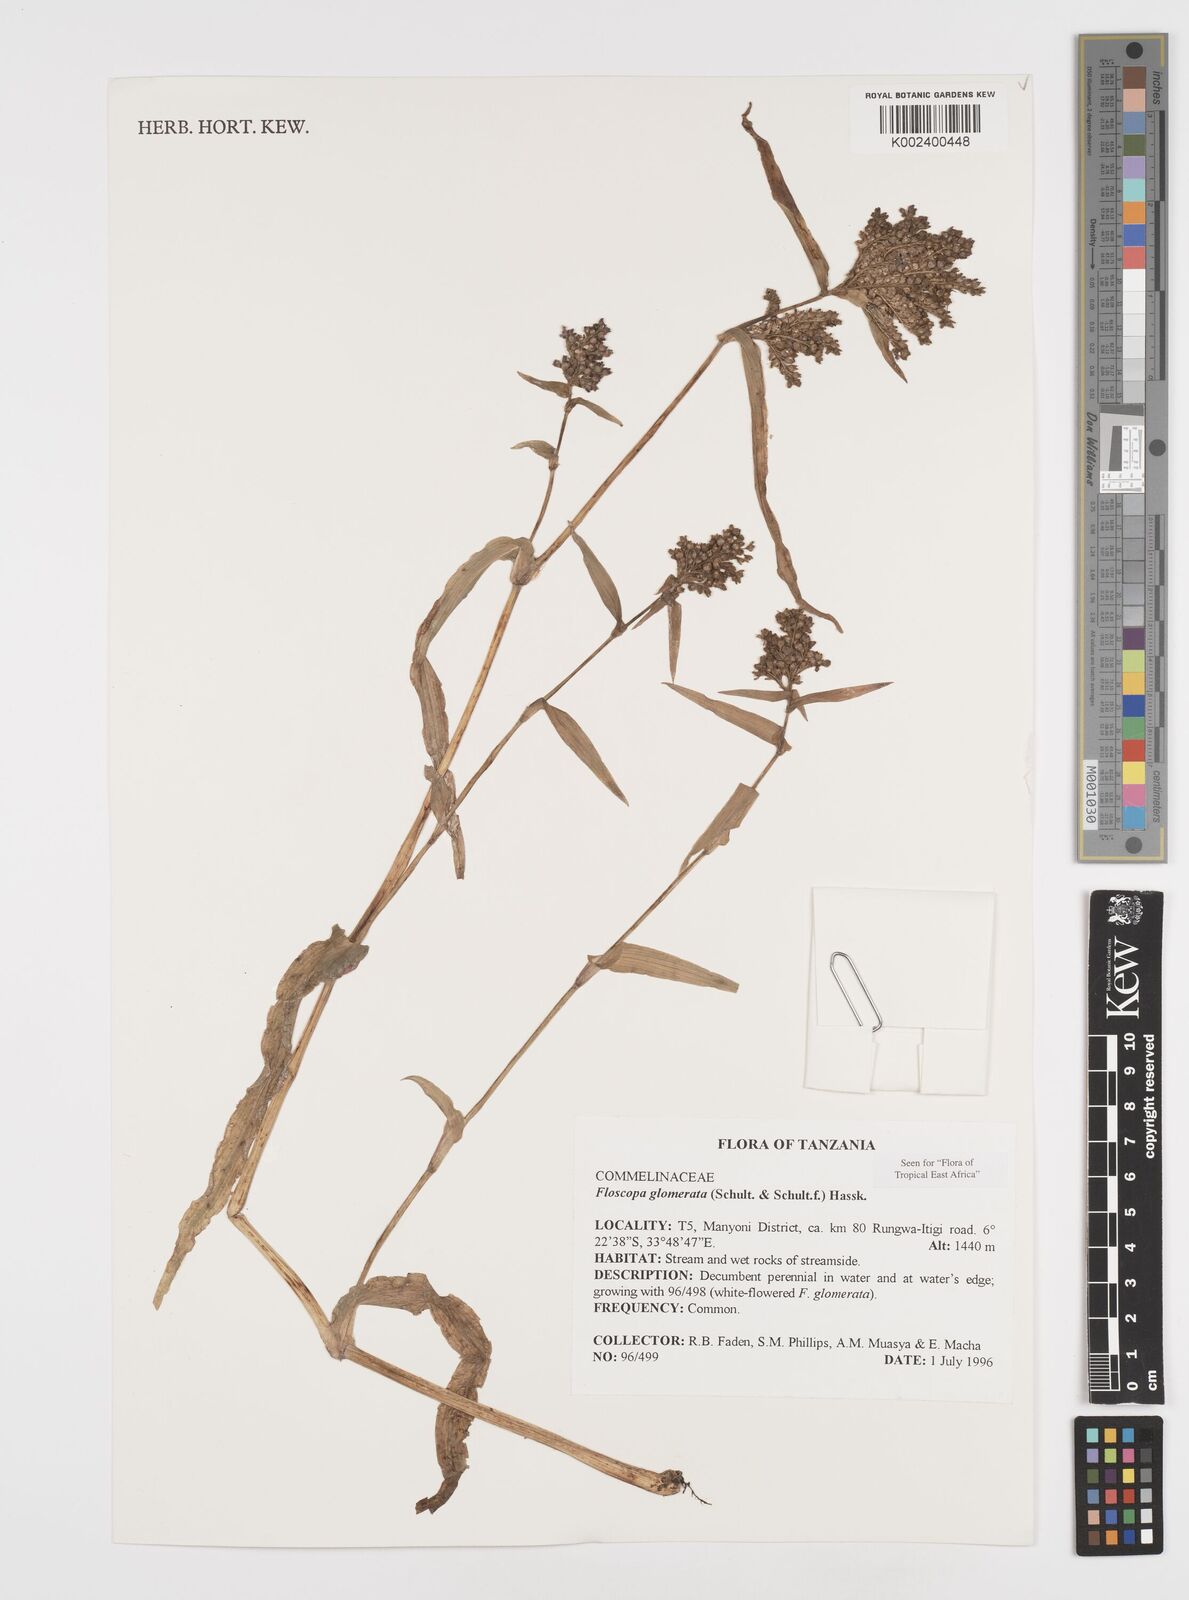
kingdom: Plantae
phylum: Tracheophyta
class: Liliopsida
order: Commelinales
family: Commelinaceae
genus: Floscopa
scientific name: Floscopa glomerata
